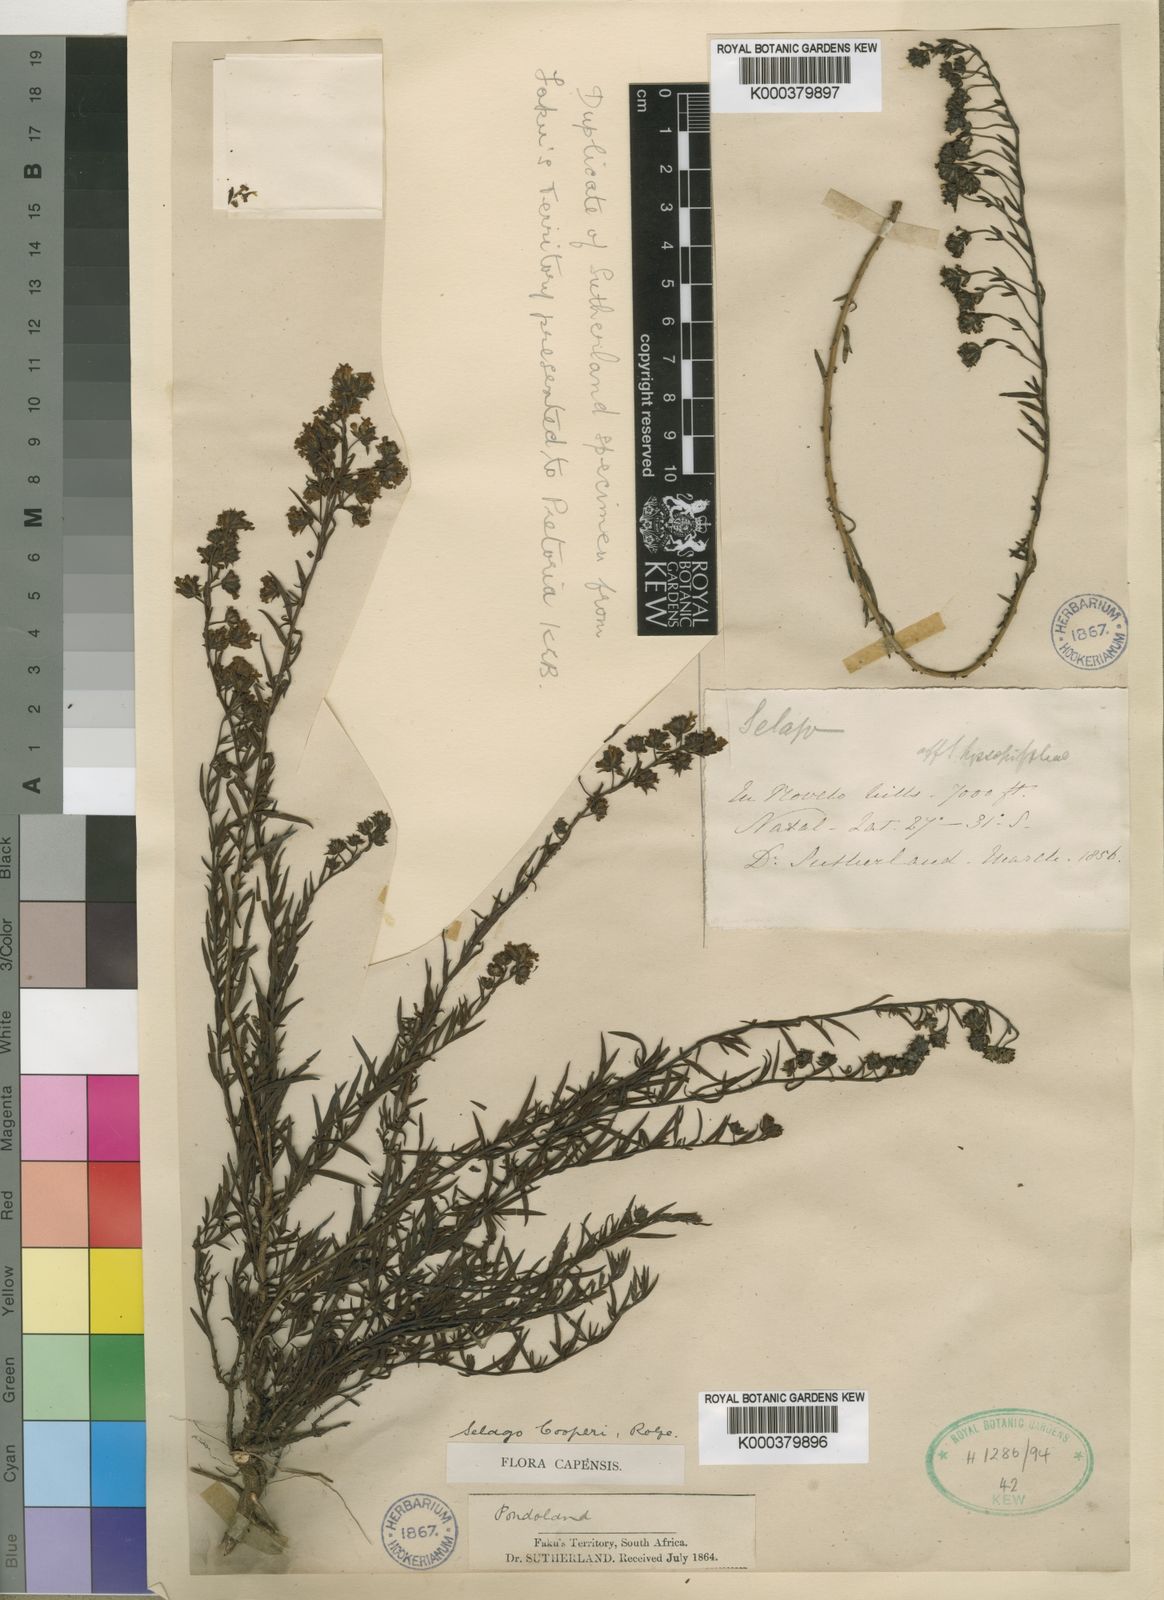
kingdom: Plantae
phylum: Tracheophyta
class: Magnoliopsida
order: Lamiales
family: Scrophulariaceae
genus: Selago
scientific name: Selago galpinii
